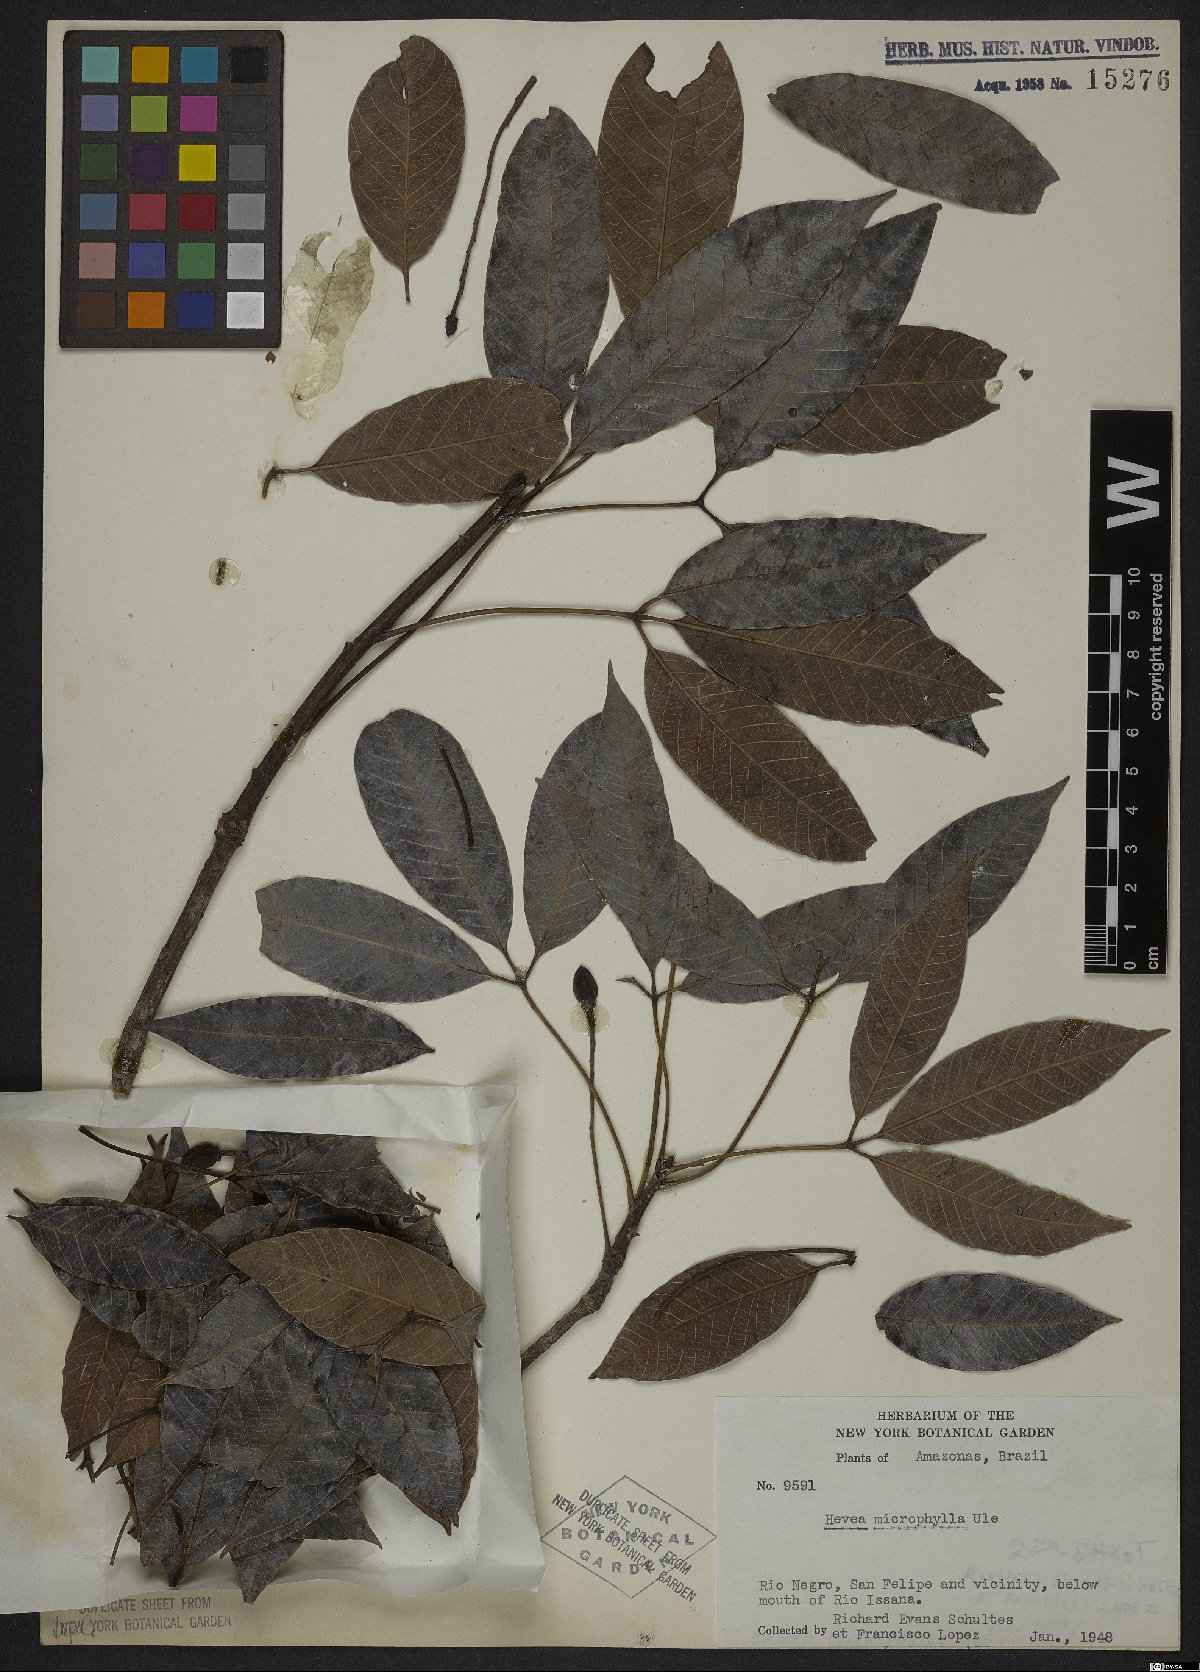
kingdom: Plantae
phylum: Tracheophyta
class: Magnoliopsida
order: Malpighiales
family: Euphorbiaceae
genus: Hevea
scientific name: Hevea microphylla
